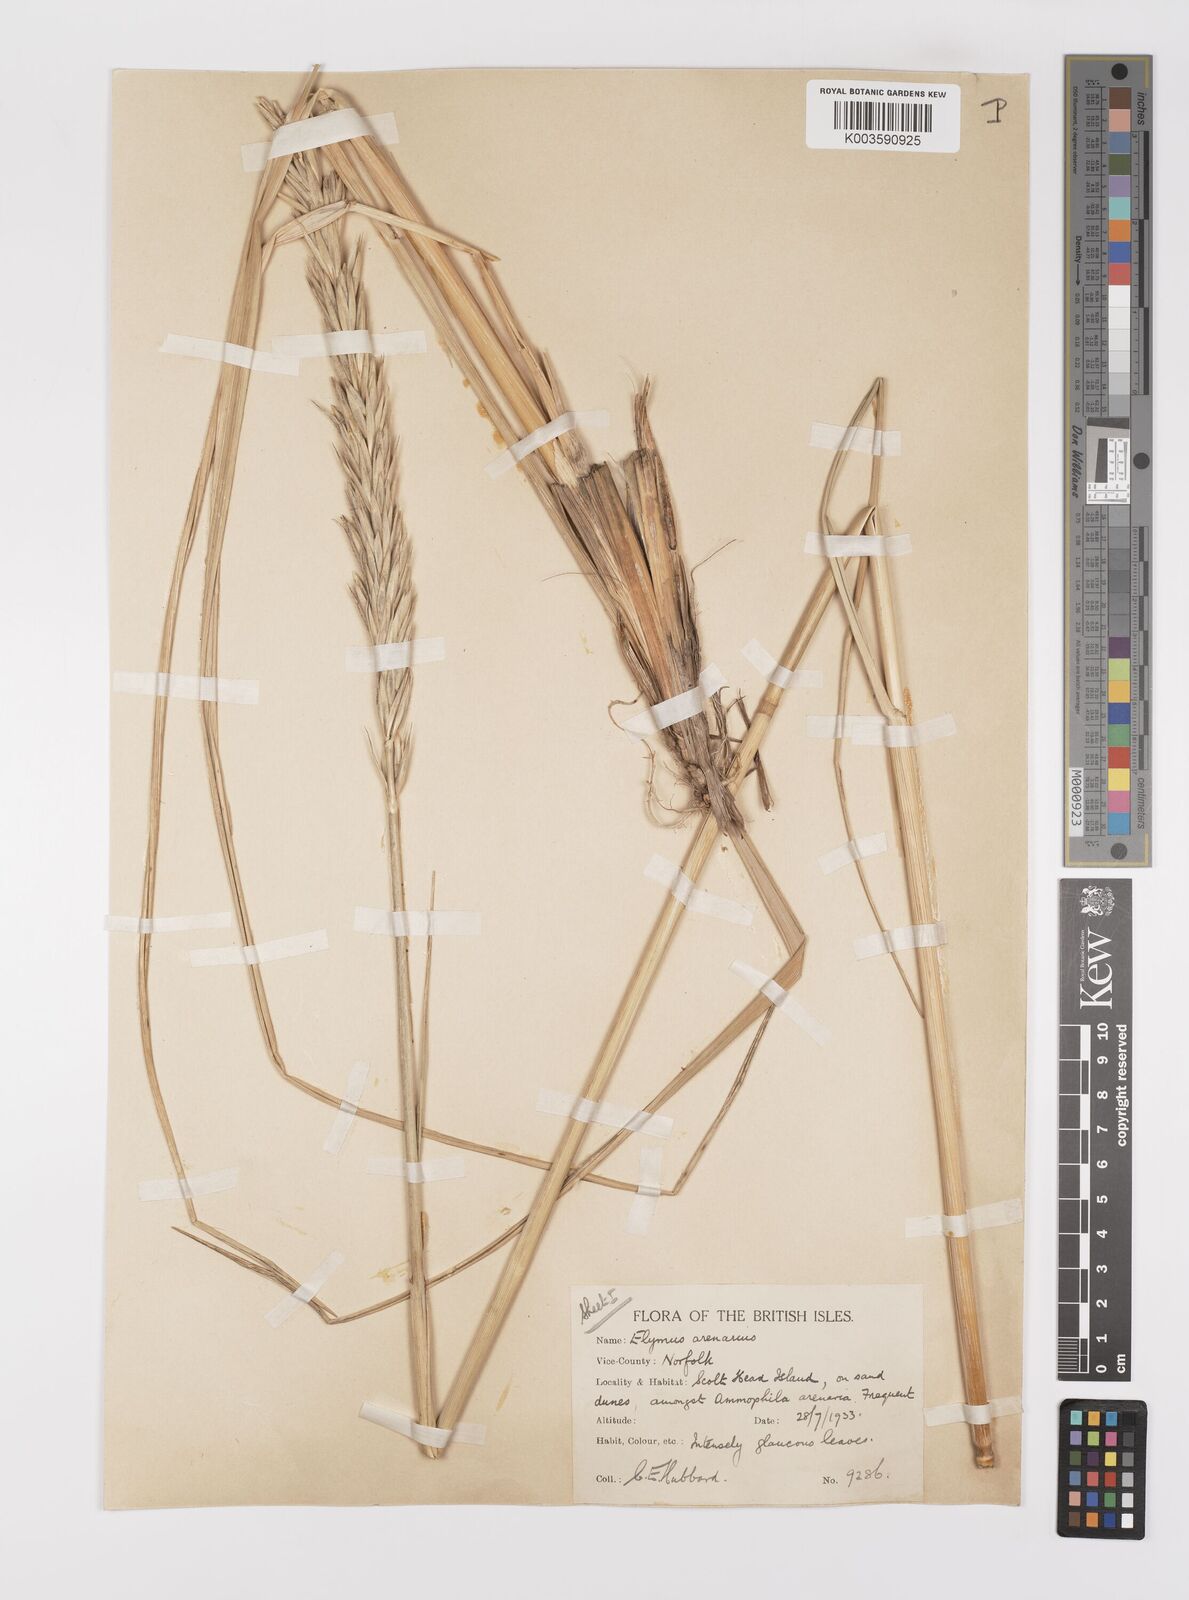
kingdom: Plantae
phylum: Tracheophyta
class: Liliopsida
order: Poales
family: Poaceae
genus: Leymus
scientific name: Leymus arenarius
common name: Lyme-grass
